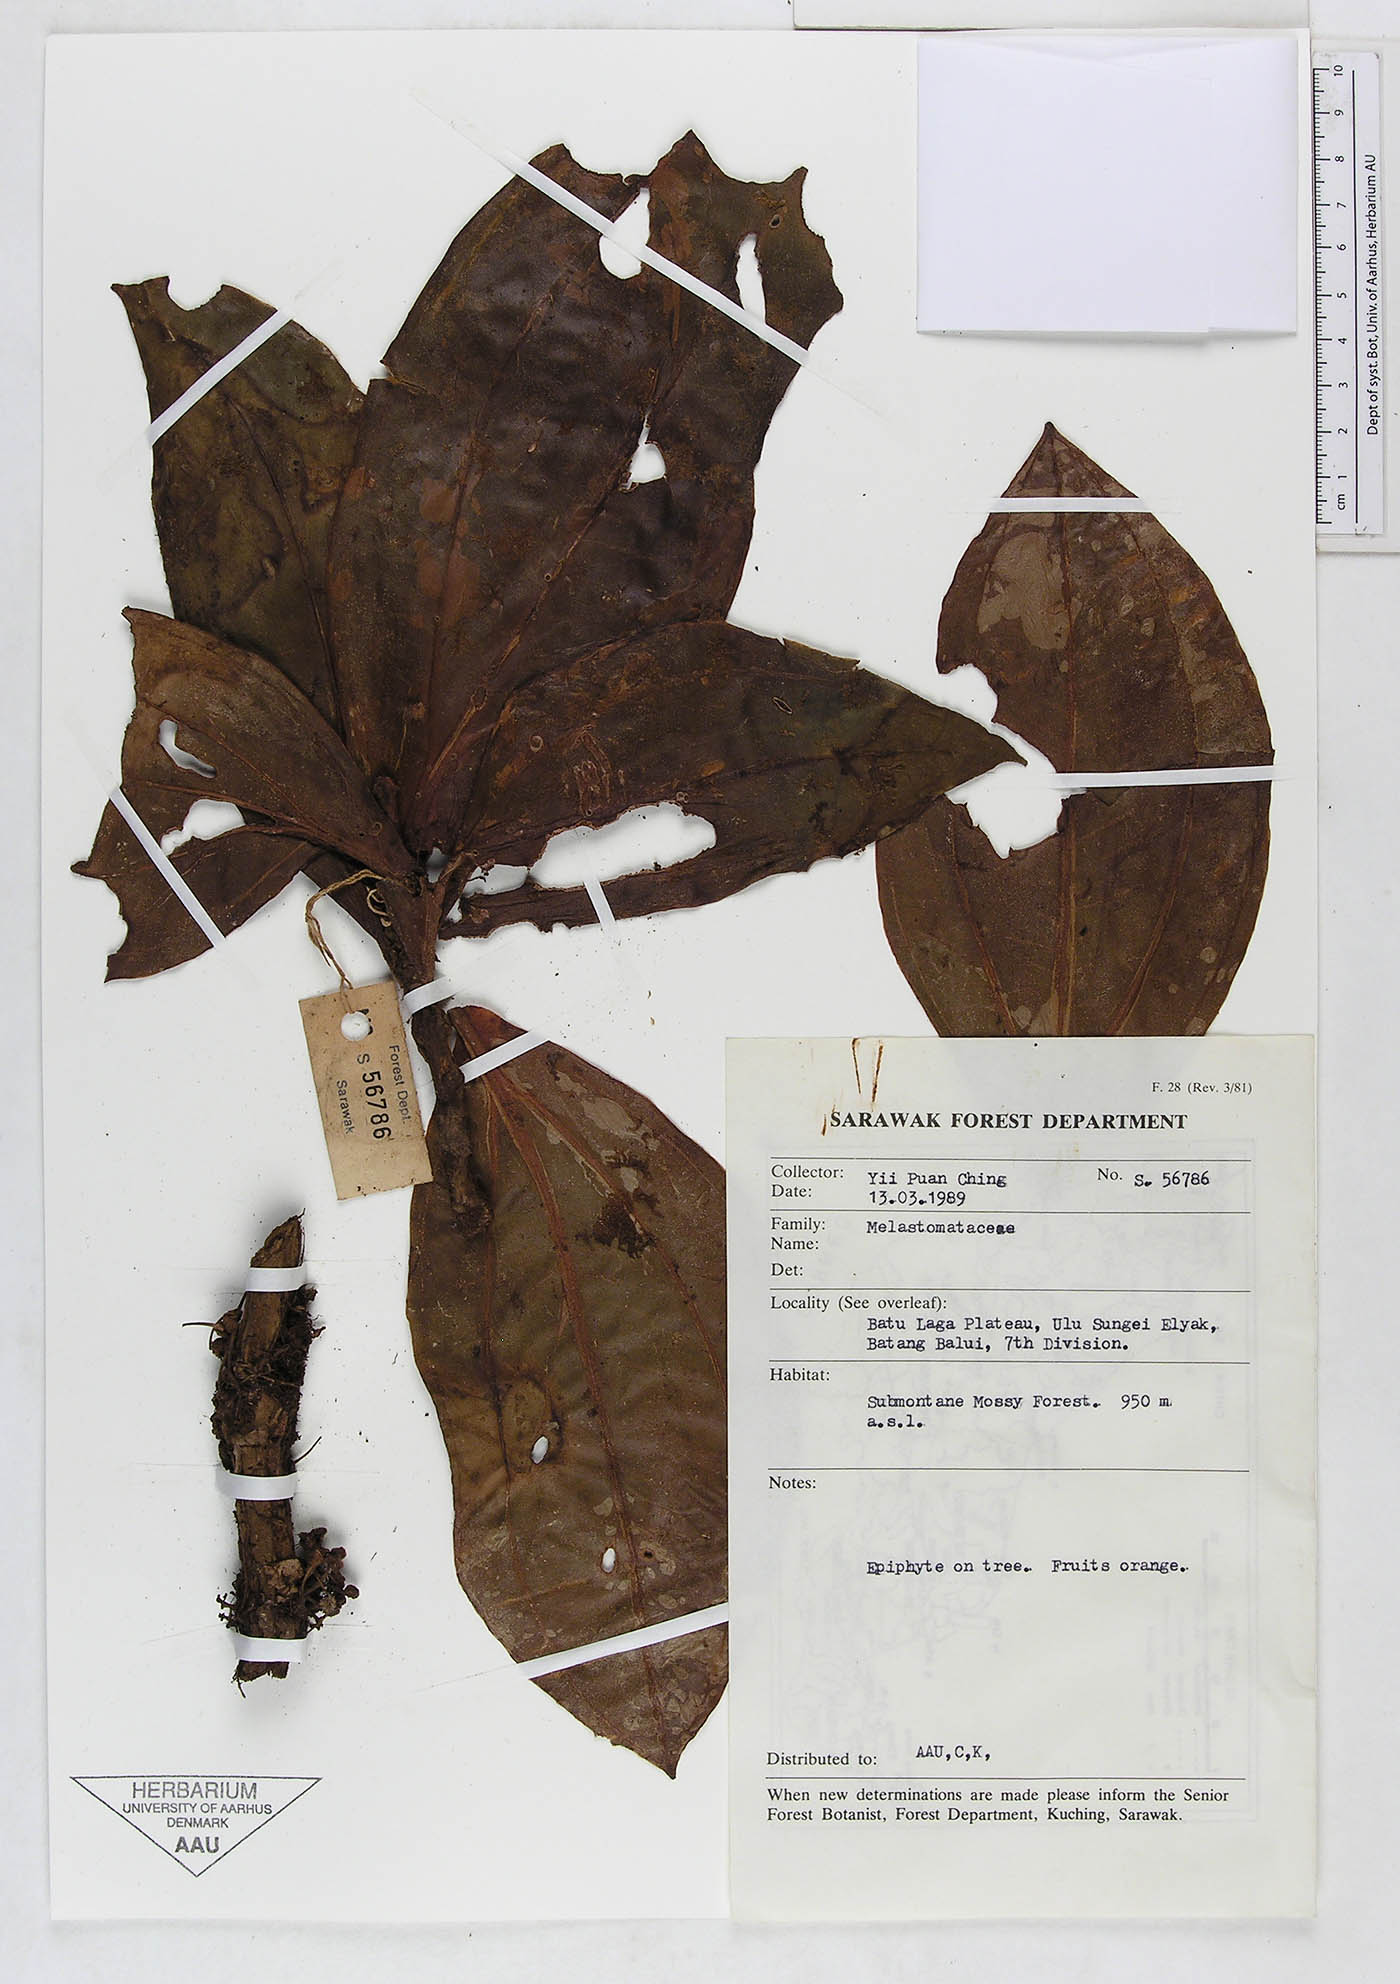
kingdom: Plantae
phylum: Tracheophyta
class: Magnoliopsida
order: Myrtales
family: Melastomataceae
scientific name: Melastomataceae
